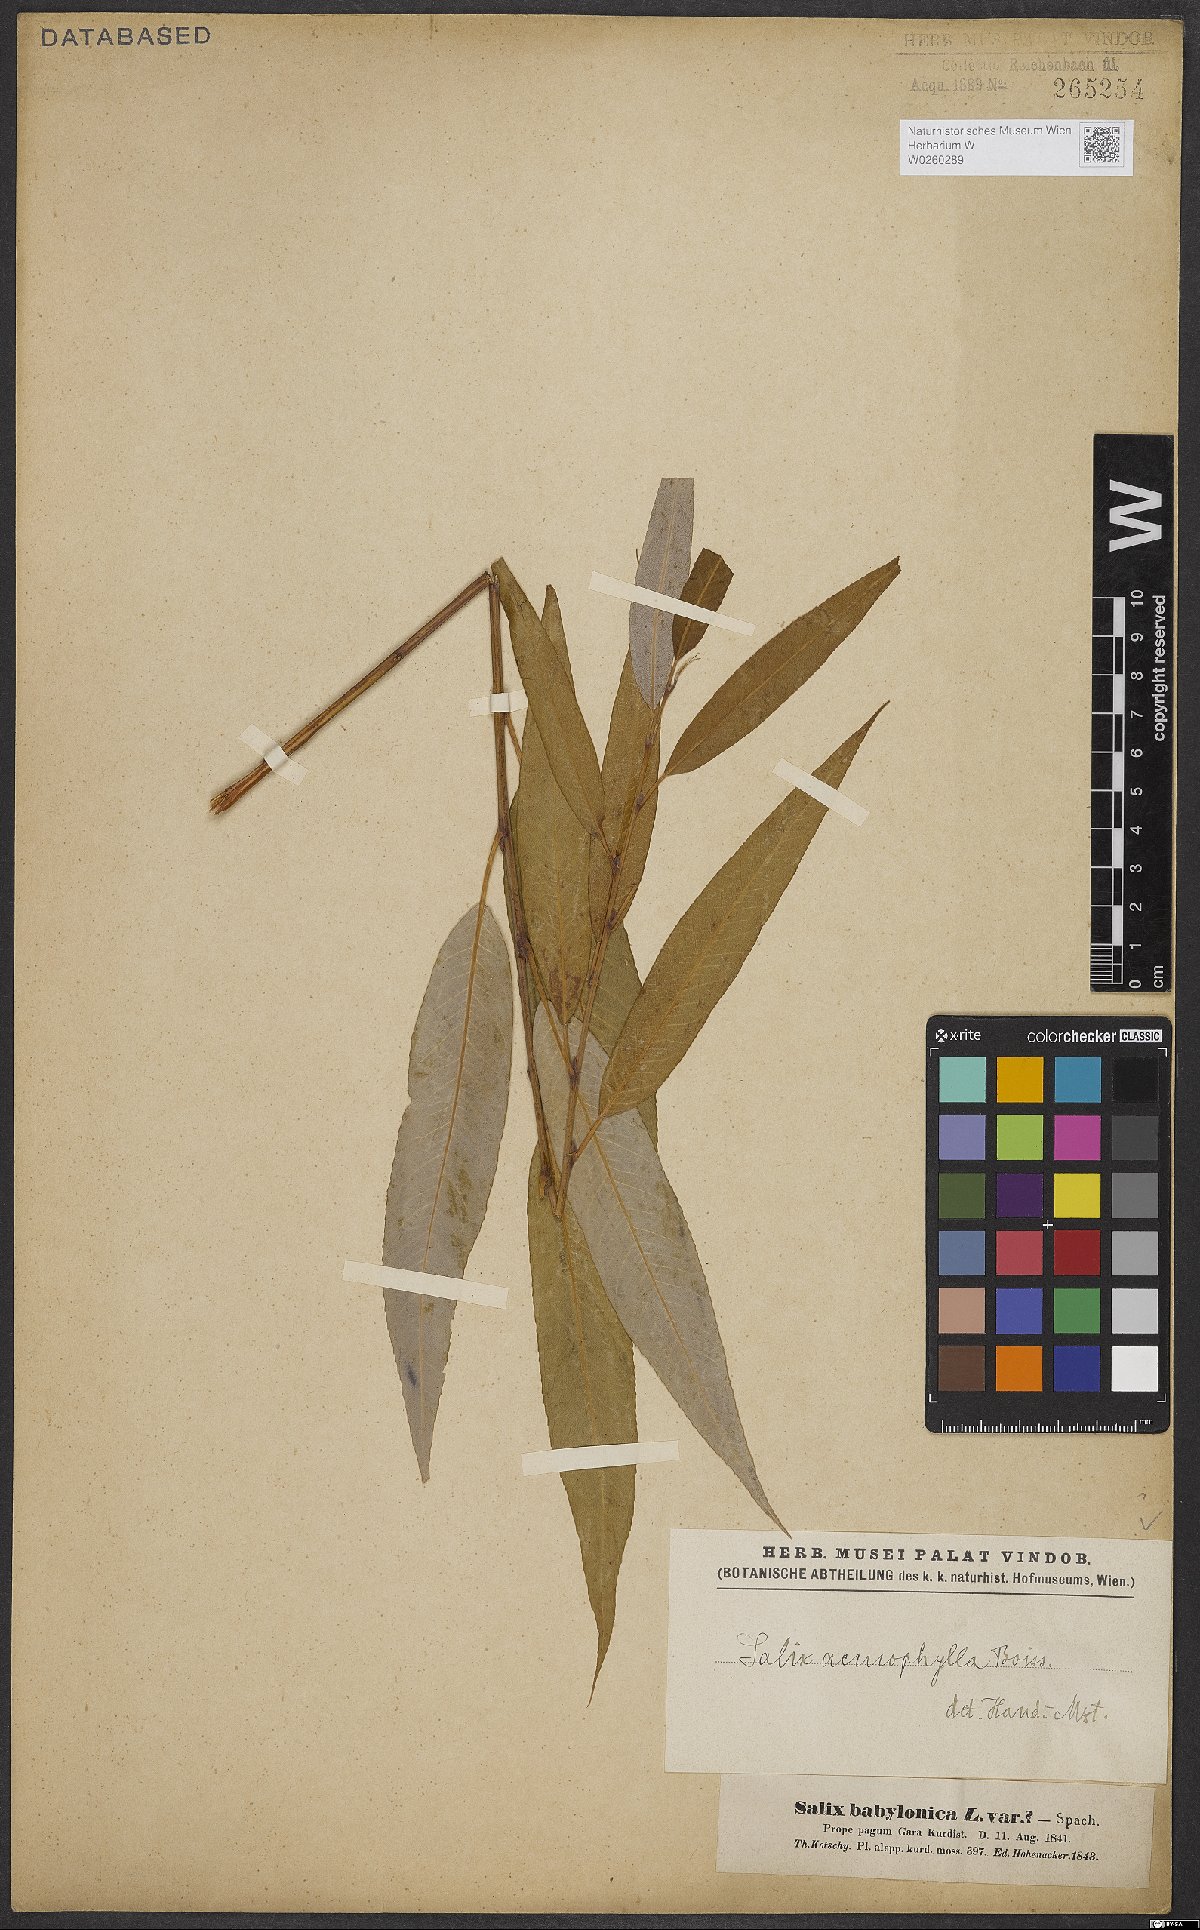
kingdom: Plantae
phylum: Tracheophyta
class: Magnoliopsida
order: Malpighiales
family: Salicaceae
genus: Salix
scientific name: Salix acmophylla
